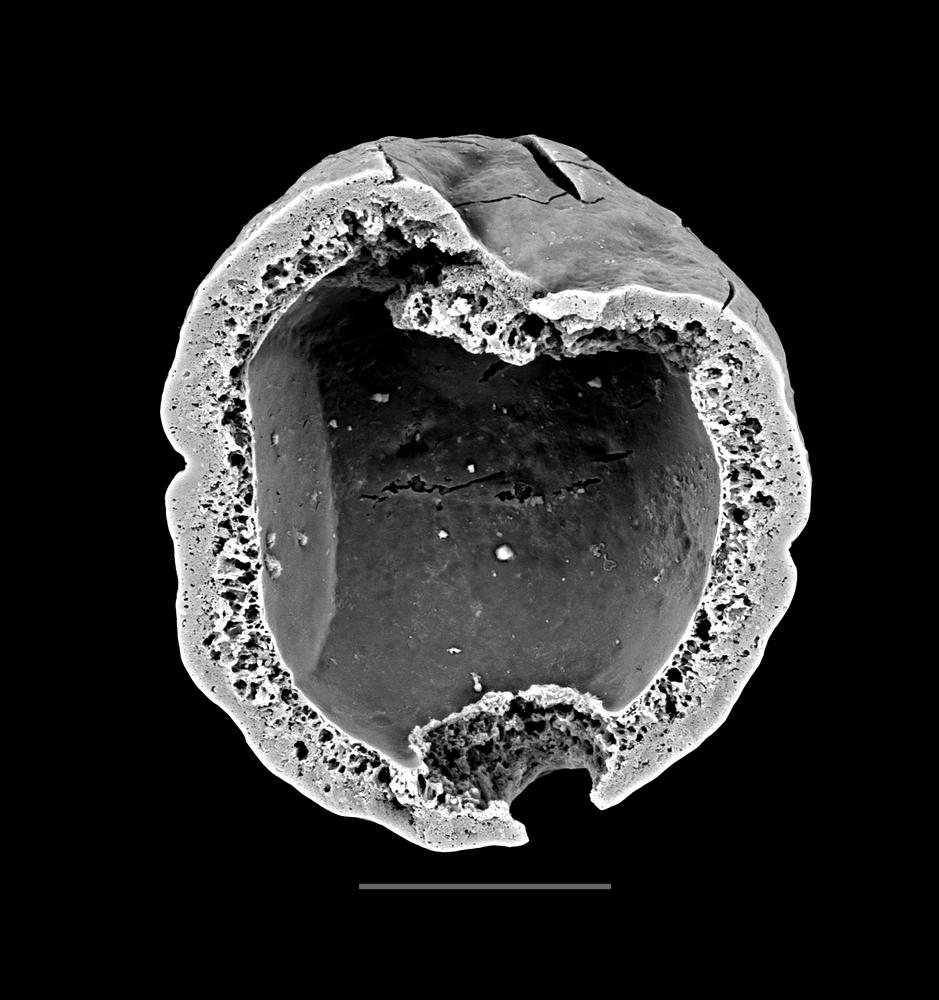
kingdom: Animalia
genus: Vikisphaera
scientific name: Vikisphaera
